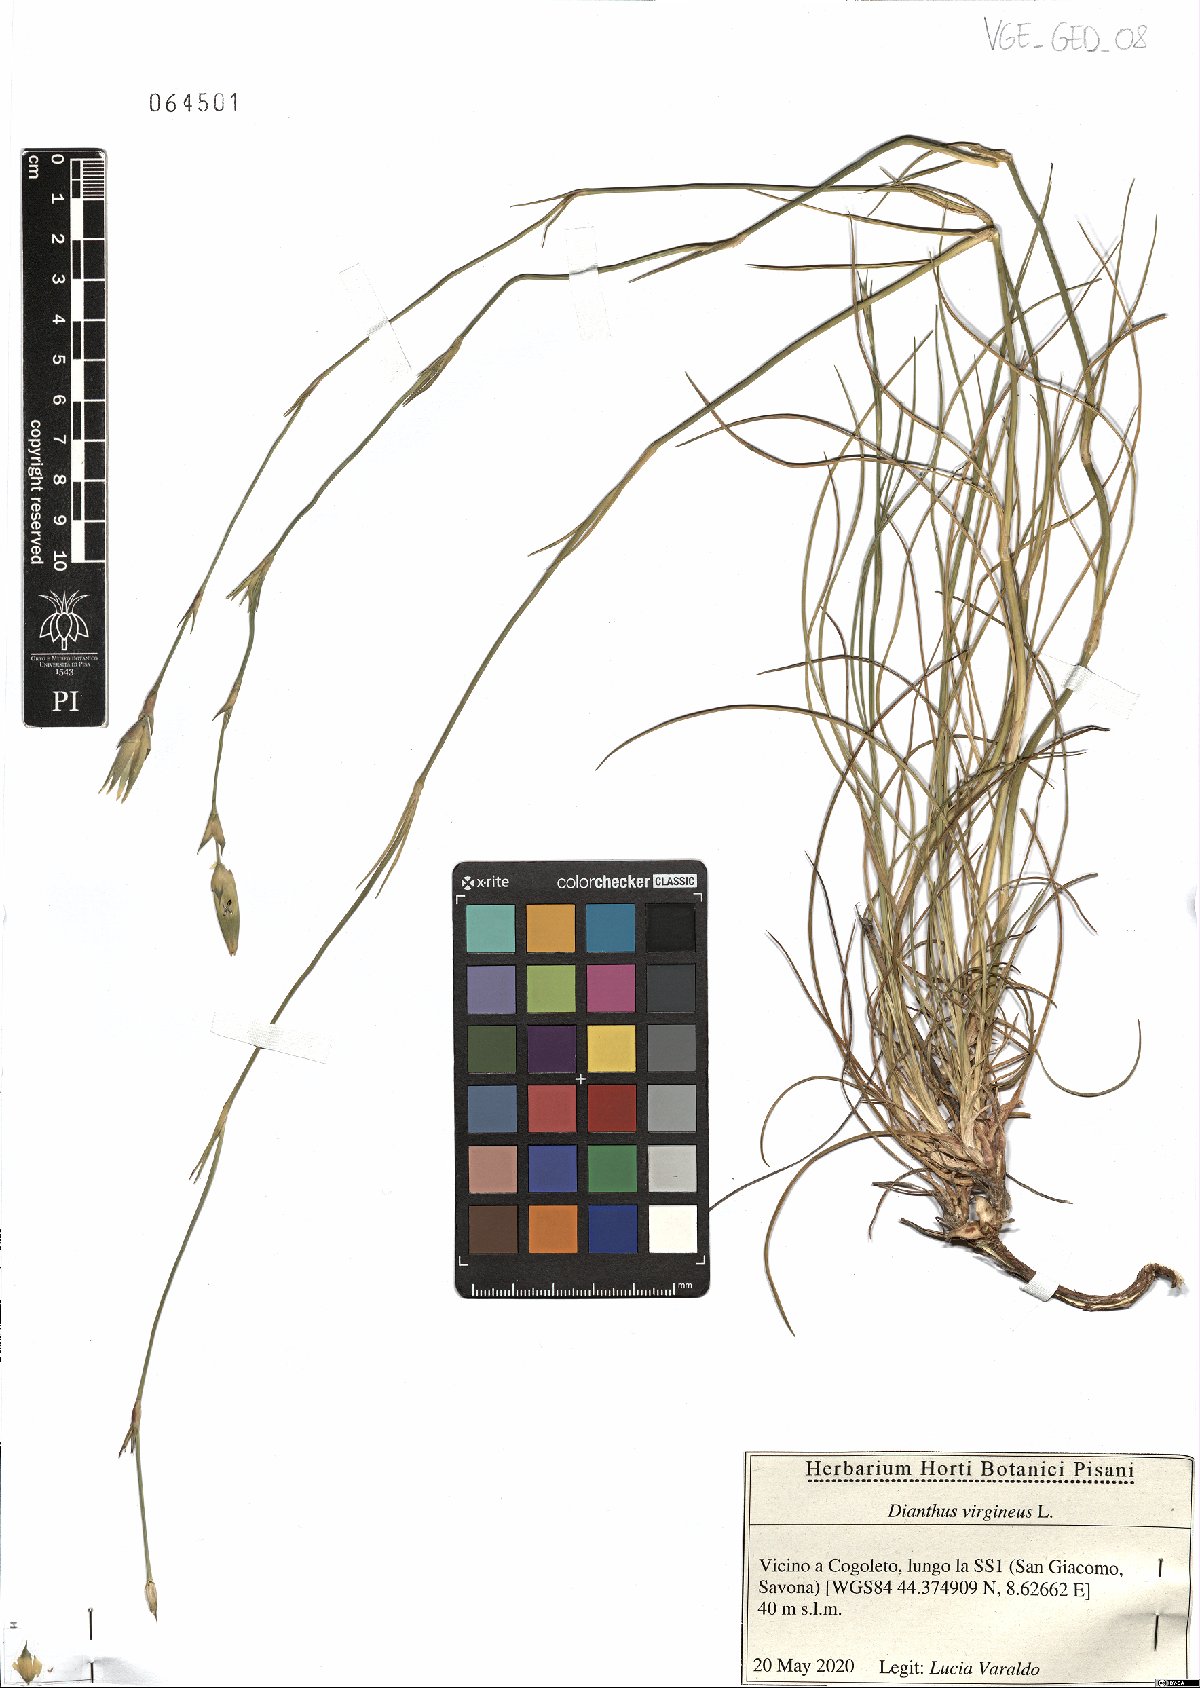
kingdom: Plantae
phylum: Tracheophyta
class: Magnoliopsida
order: Caryophyllales
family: Caryophyllaceae
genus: Dianthus
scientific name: Dianthus virgineus
